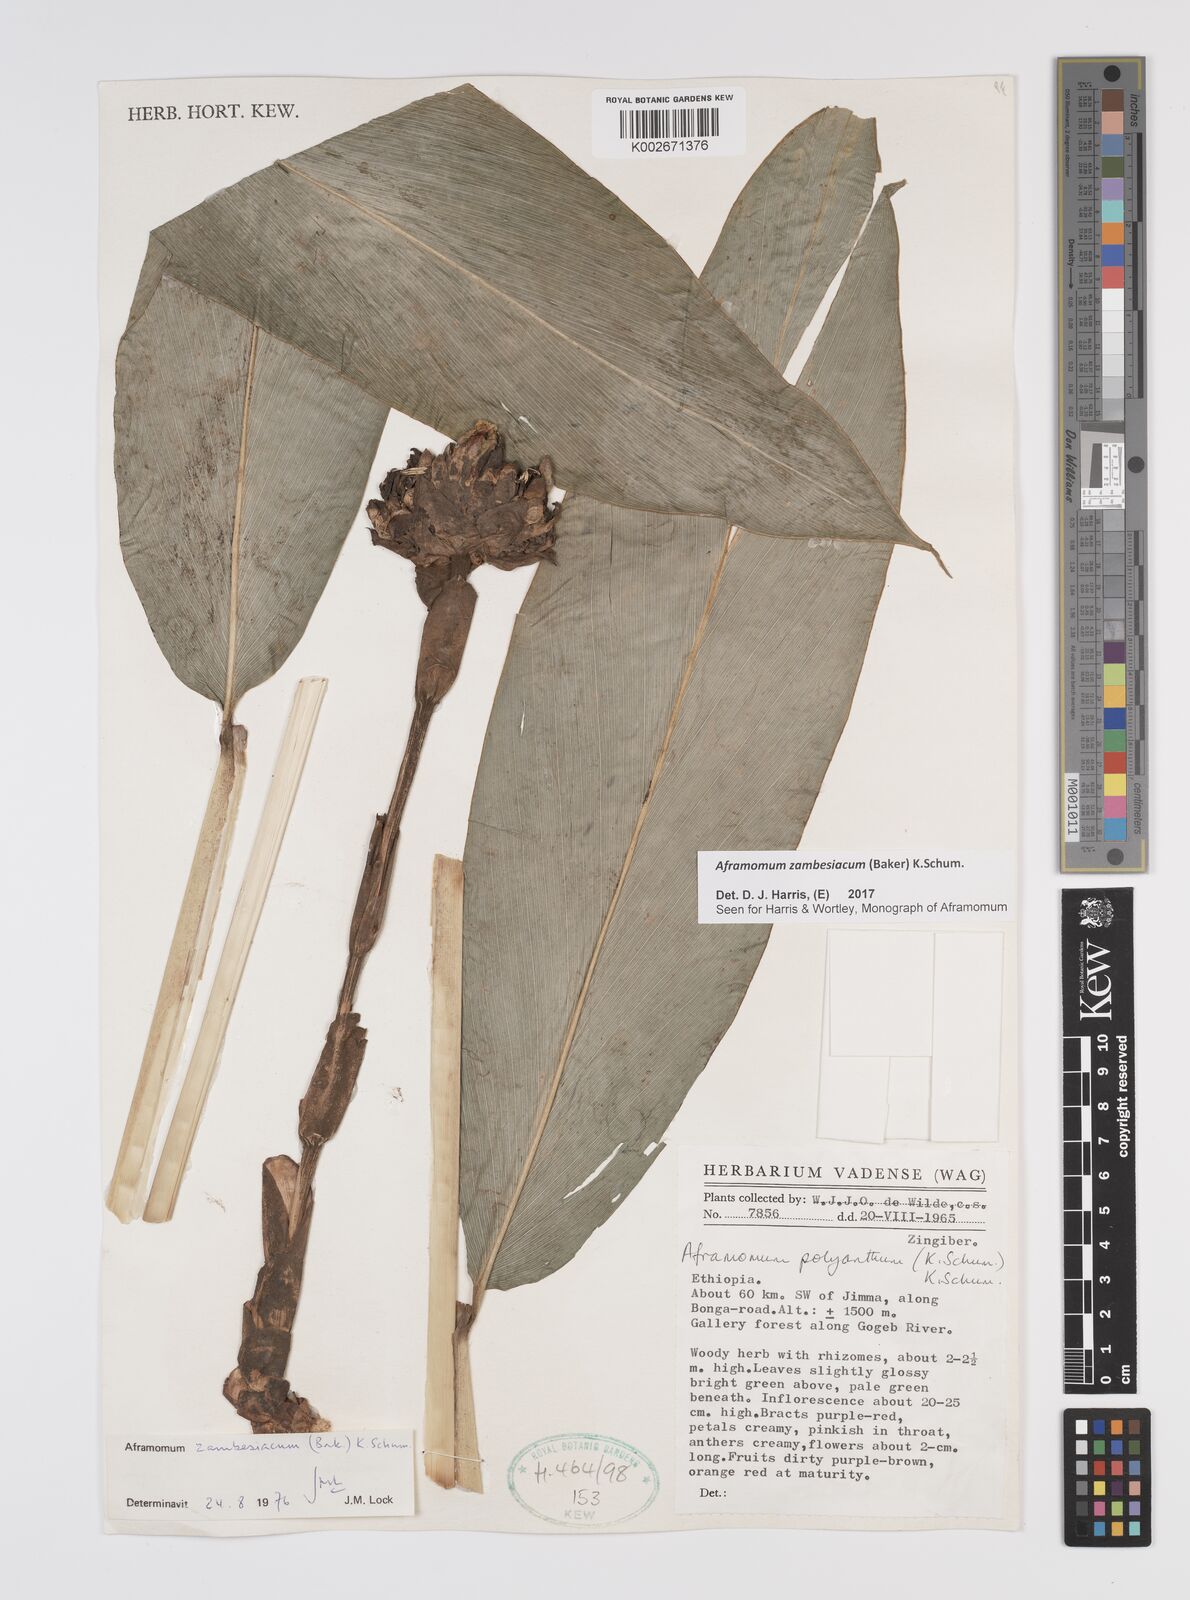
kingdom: Plantae
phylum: Tracheophyta
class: Liliopsida
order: Zingiberales
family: Zingiberaceae
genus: Aframomum
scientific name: Aframomum zambesiacum
